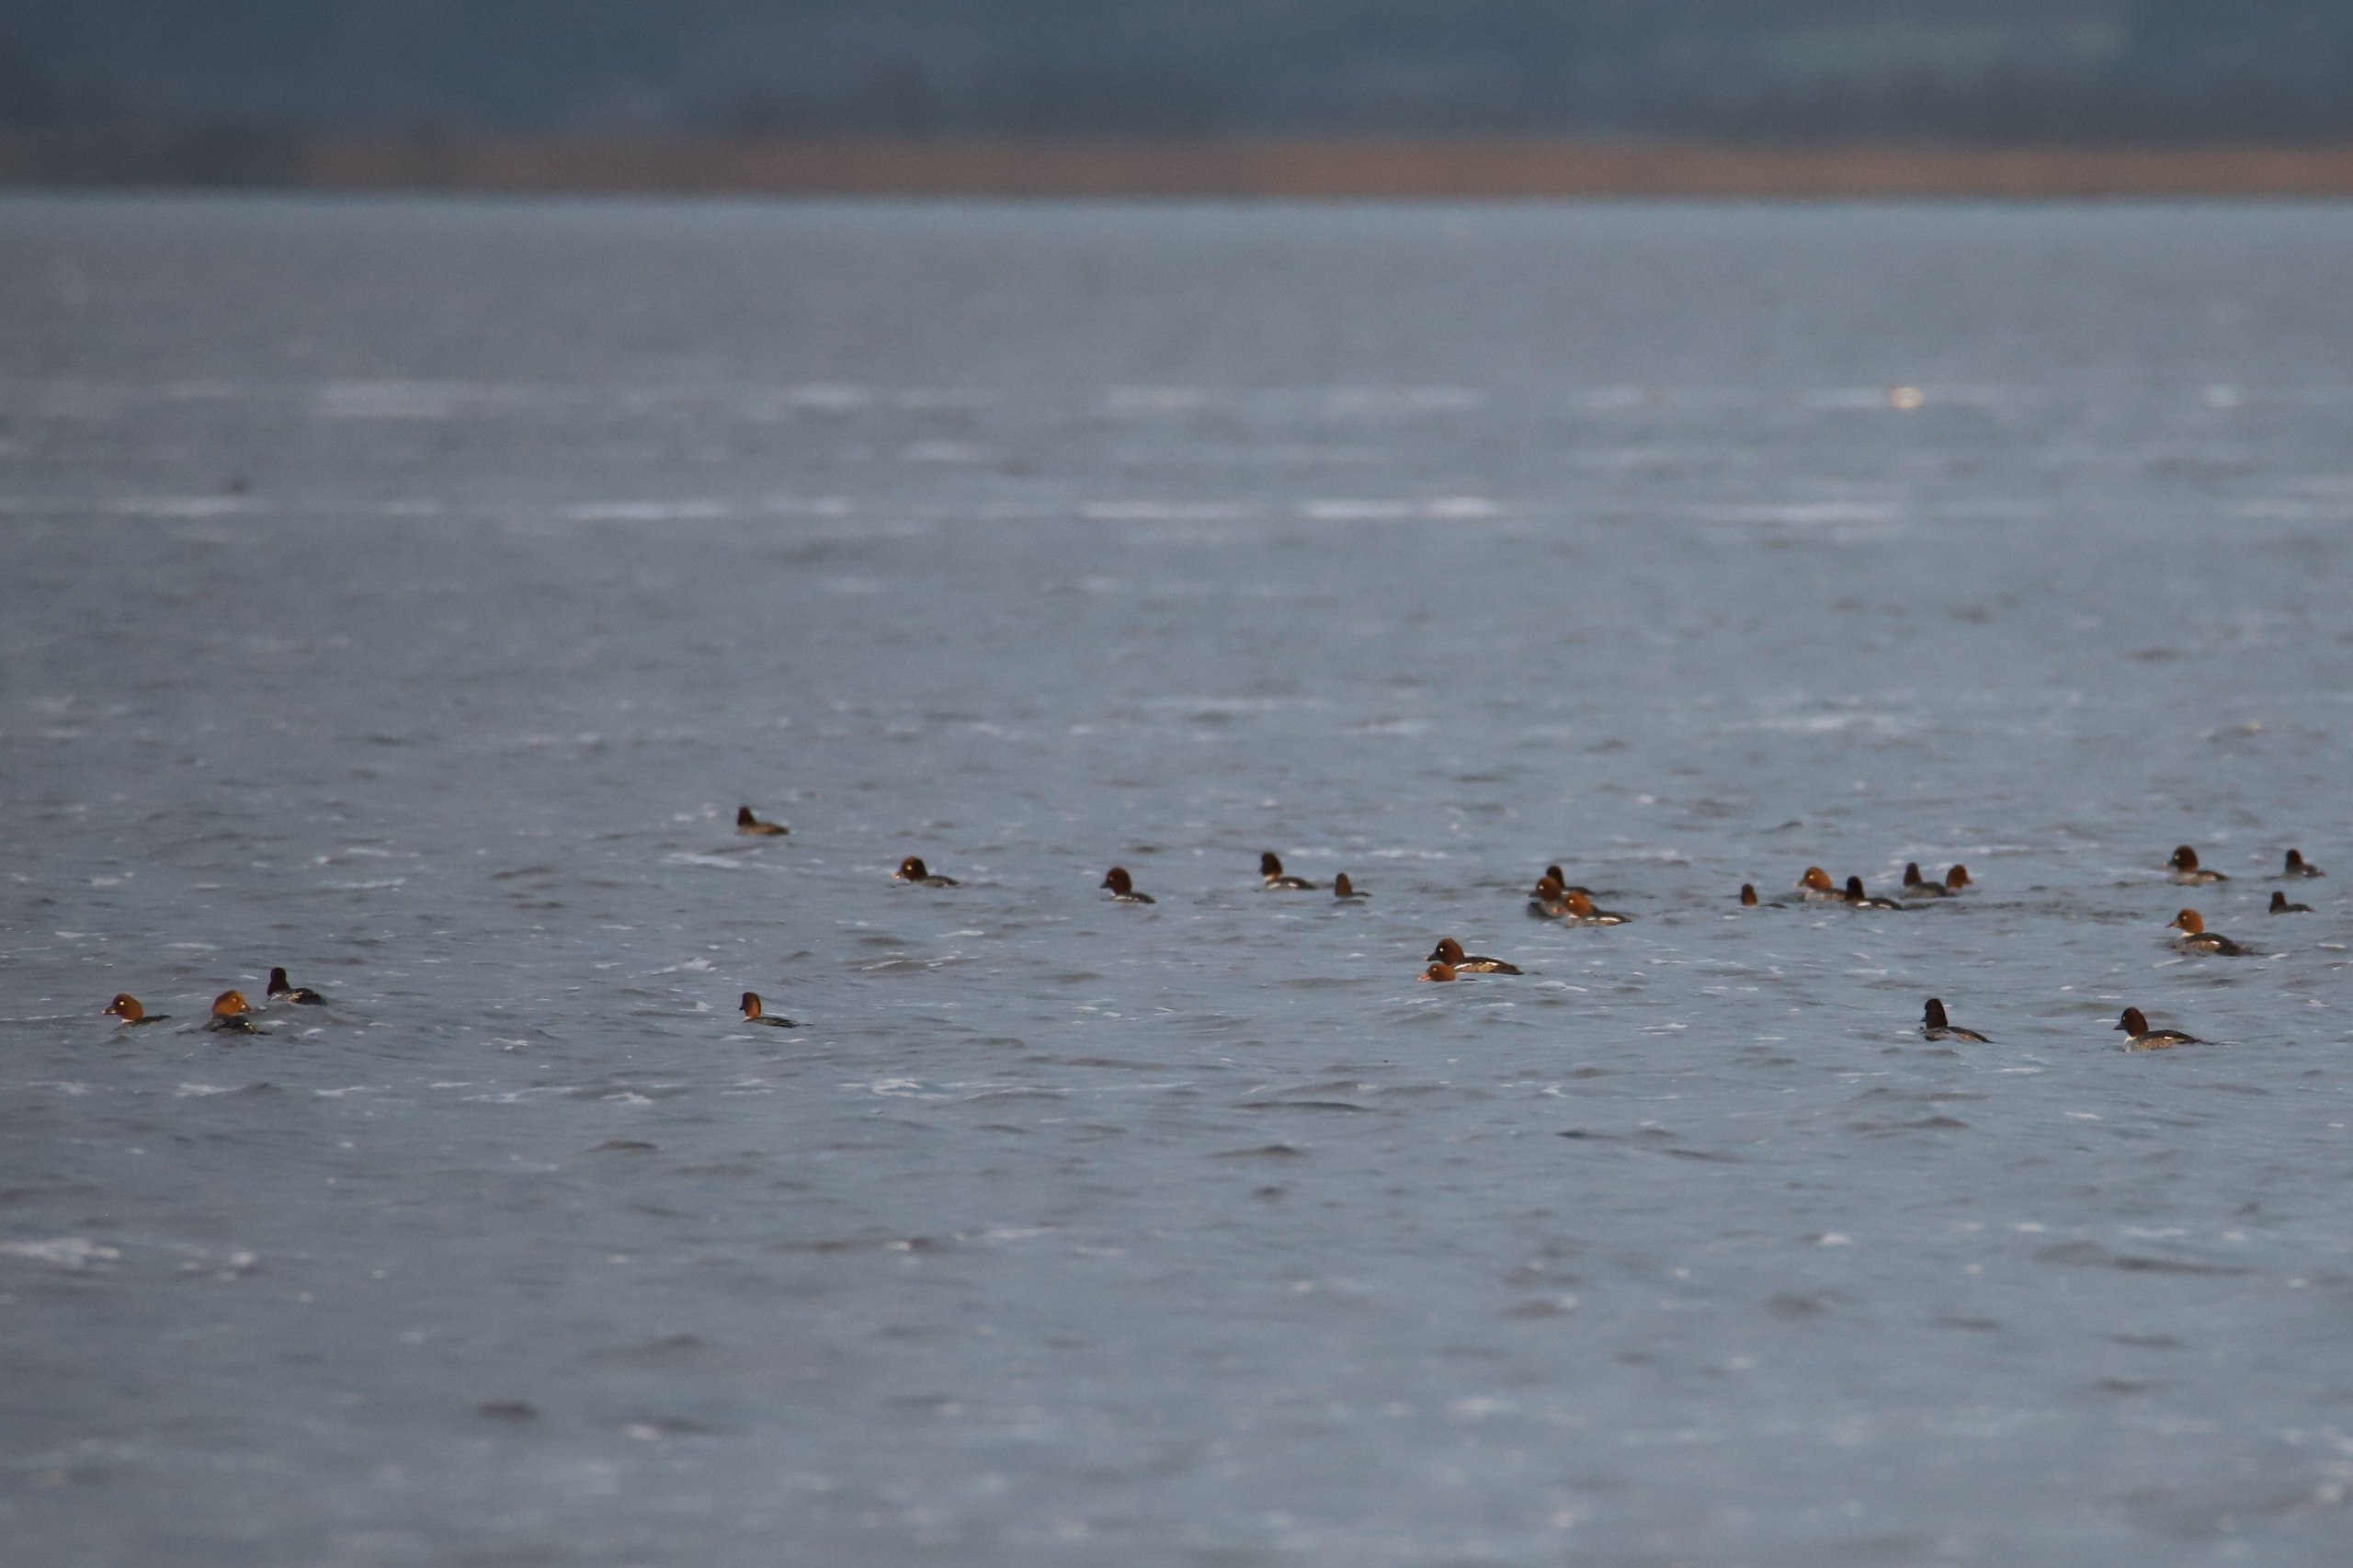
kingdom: Animalia
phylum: Chordata
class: Aves
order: Anseriformes
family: Anatidae
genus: Bucephala
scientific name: Bucephala clangula
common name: Hvinand
